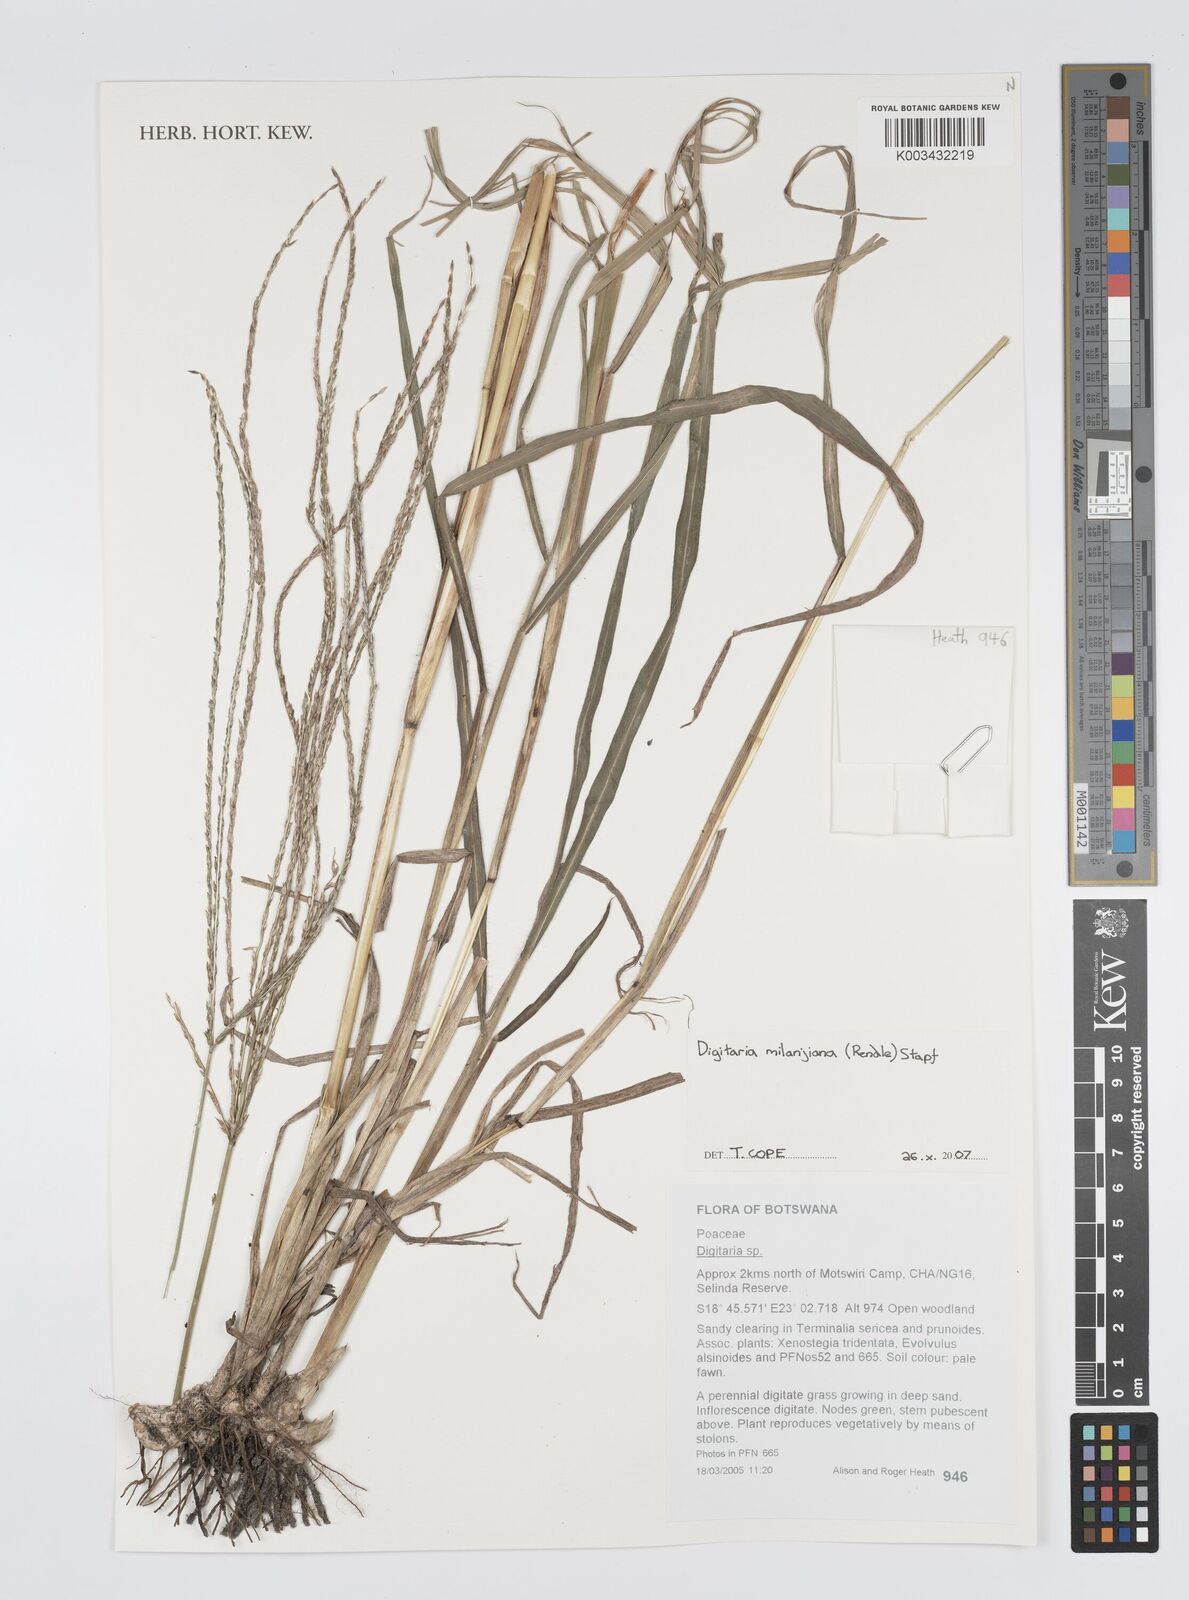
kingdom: Plantae
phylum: Tracheophyta
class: Liliopsida
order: Poales
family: Poaceae
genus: Digitaria
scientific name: Digitaria milanjiana
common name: Madagascar crabgrass
